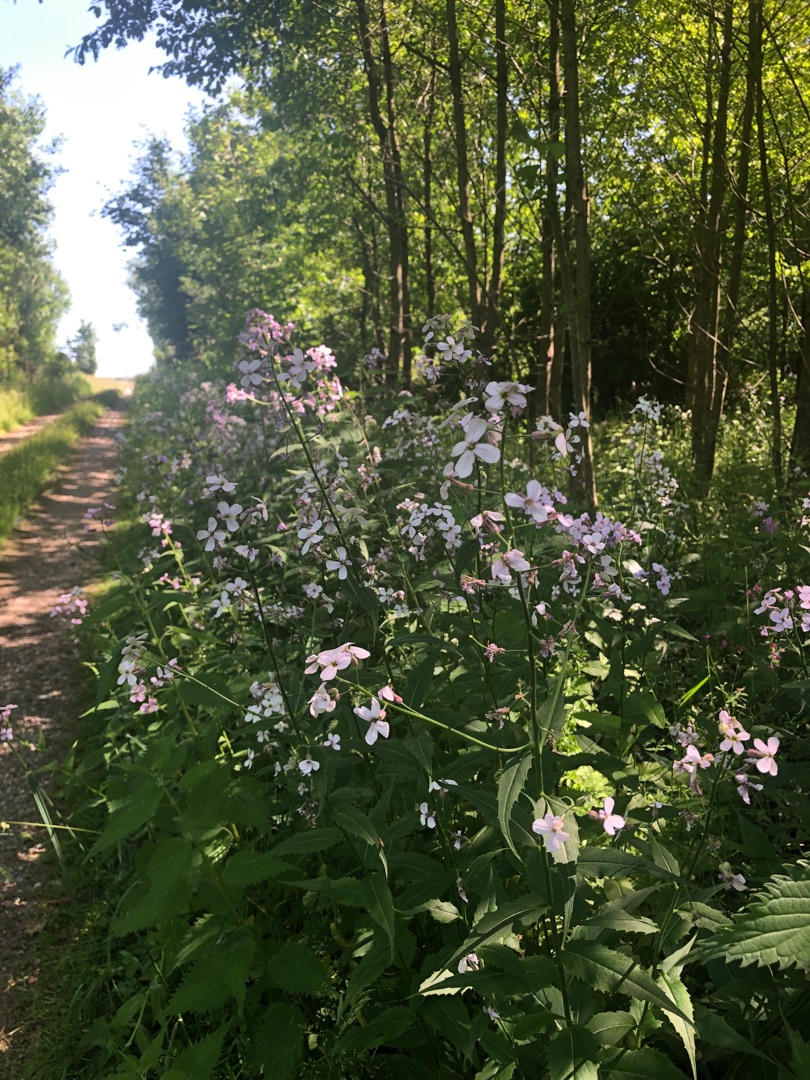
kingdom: Plantae
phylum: Tracheophyta
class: Magnoliopsida
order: Brassicales
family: Brassicaceae
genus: Hesperis
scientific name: Hesperis matronalis
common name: Aftenstjerne
